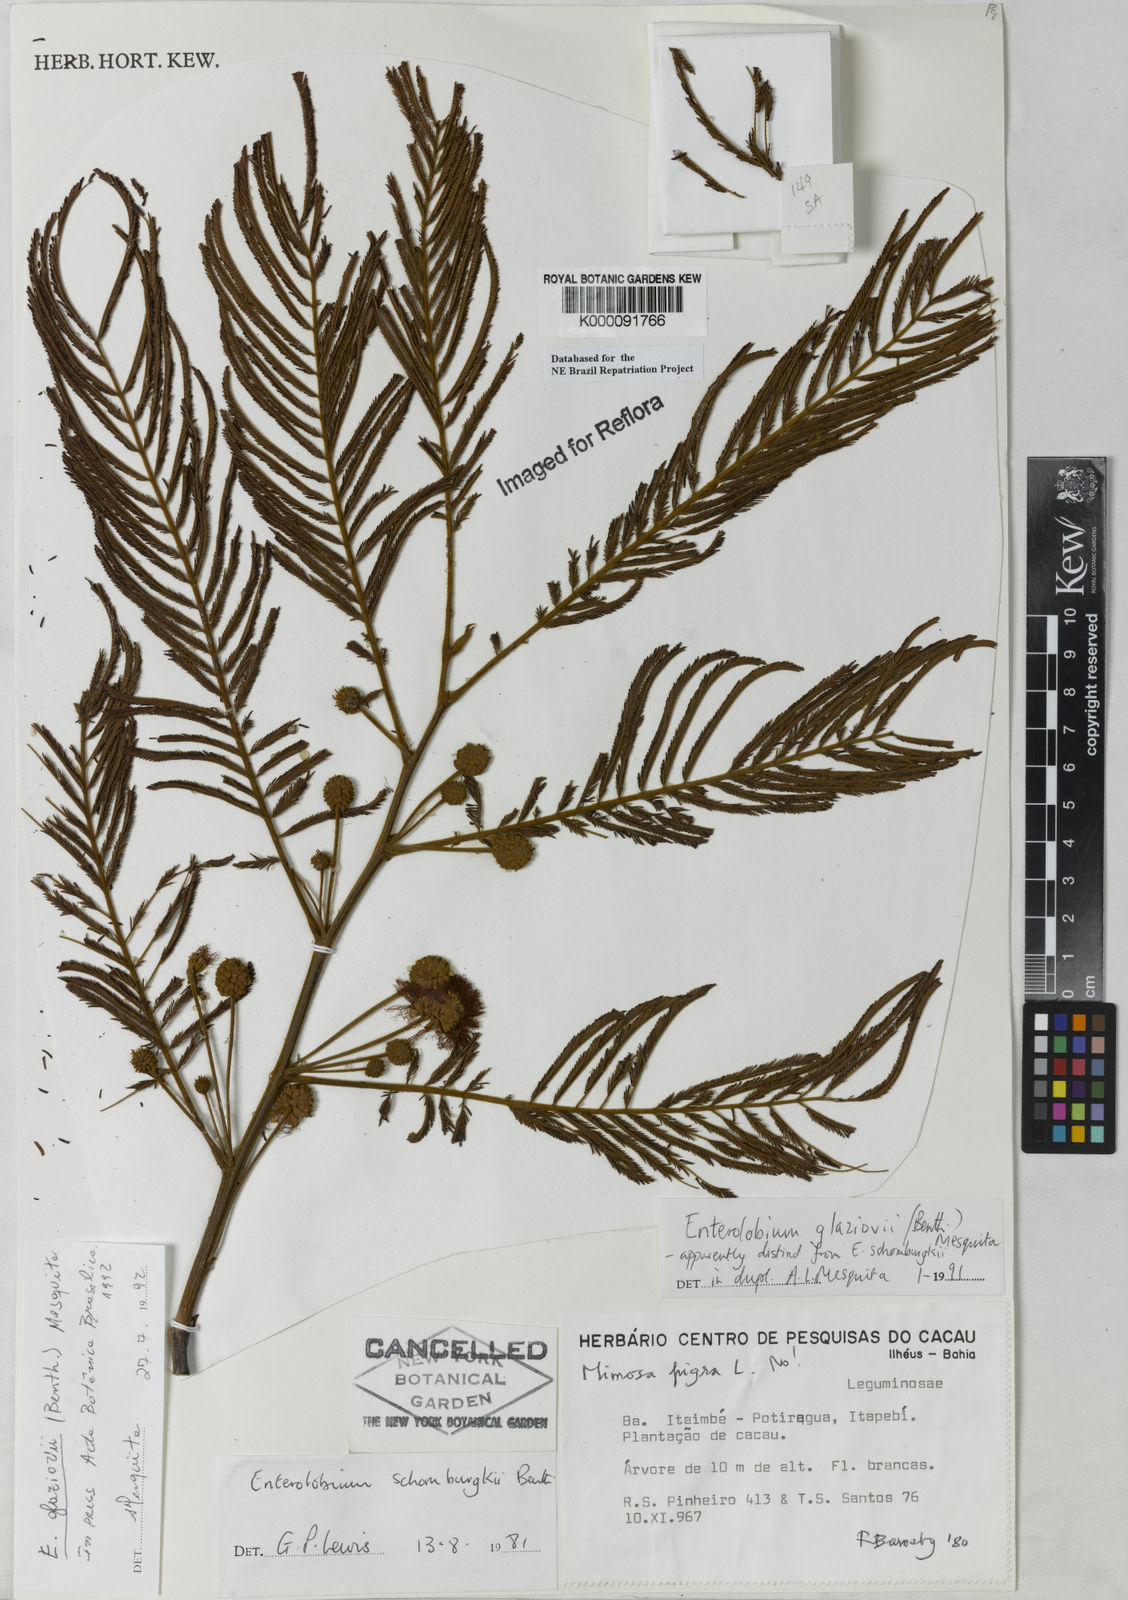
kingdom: Plantae
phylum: Tracheophyta
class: Magnoliopsida
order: Fabales
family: Fabaceae
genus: Enterolobium
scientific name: Enterolobium glaziovii
